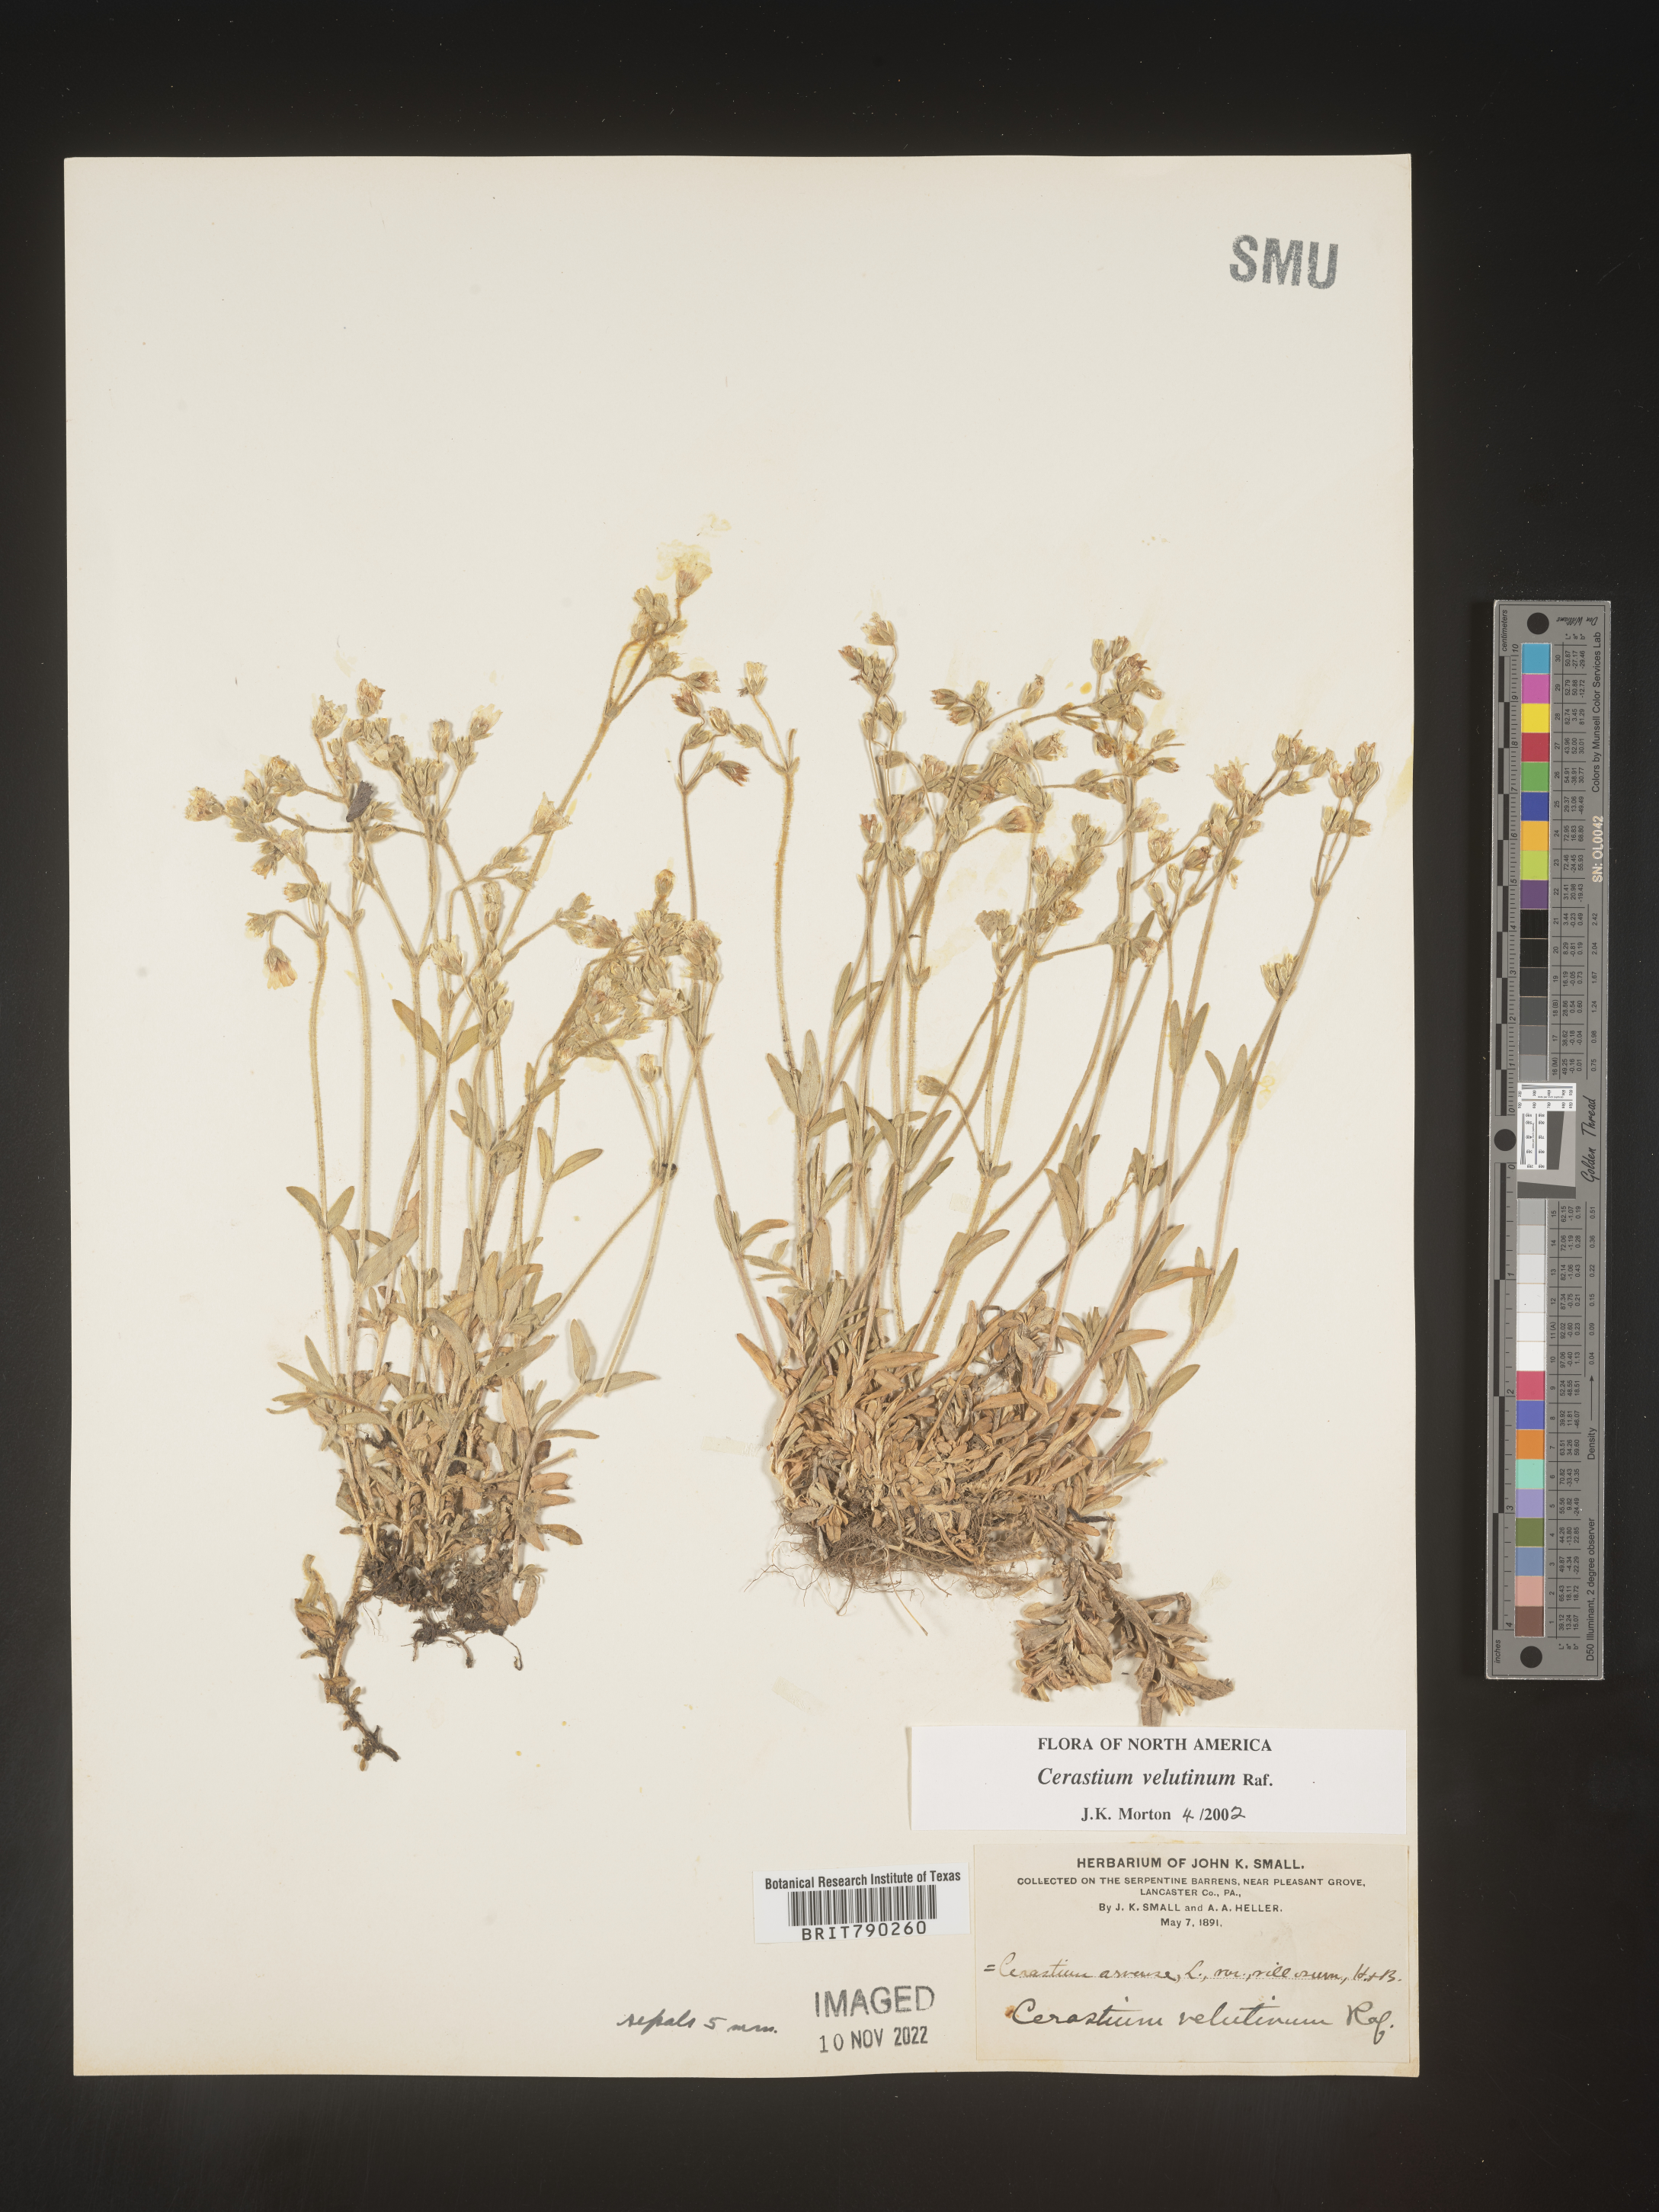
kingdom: Plantae
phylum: Tracheophyta
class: Magnoliopsida
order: Caryophyllales
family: Caryophyllaceae
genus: Cerastium
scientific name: Cerastium velutinum
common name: Barren chickweed
